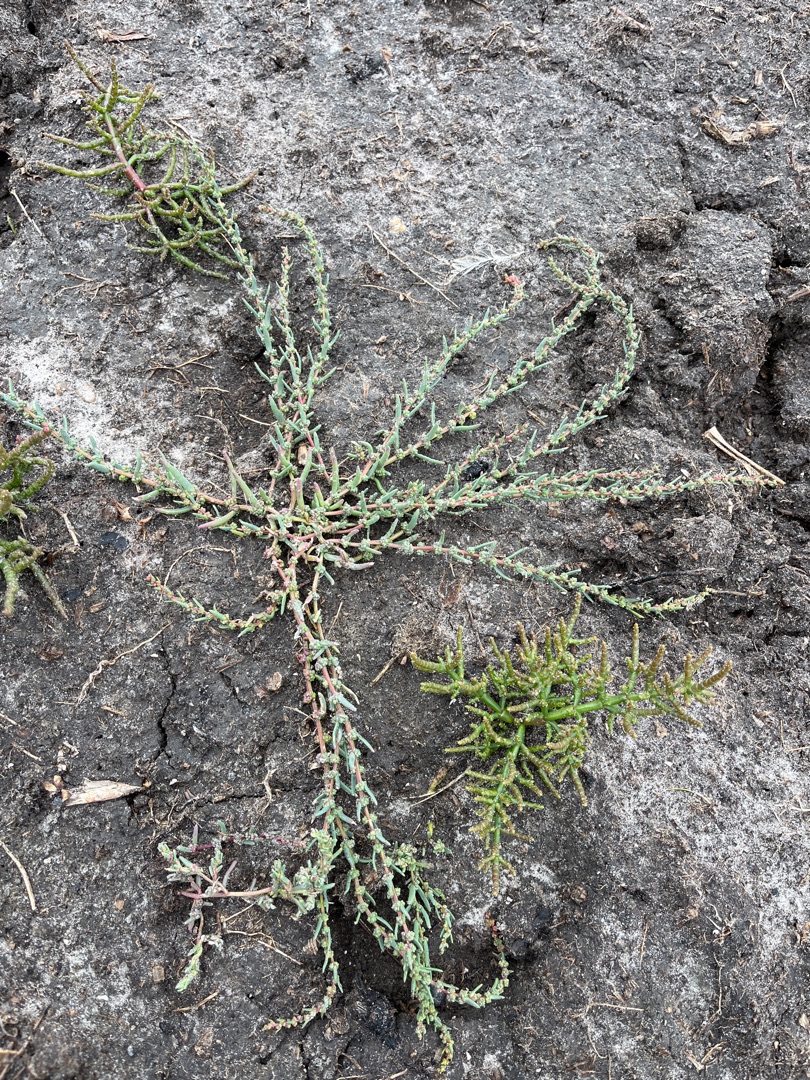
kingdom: Plantae
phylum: Tracheophyta
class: Magnoliopsida
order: Caryophyllales
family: Amaranthaceae
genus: Suaeda
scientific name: Suaeda maritima
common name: Strandgåsefod
